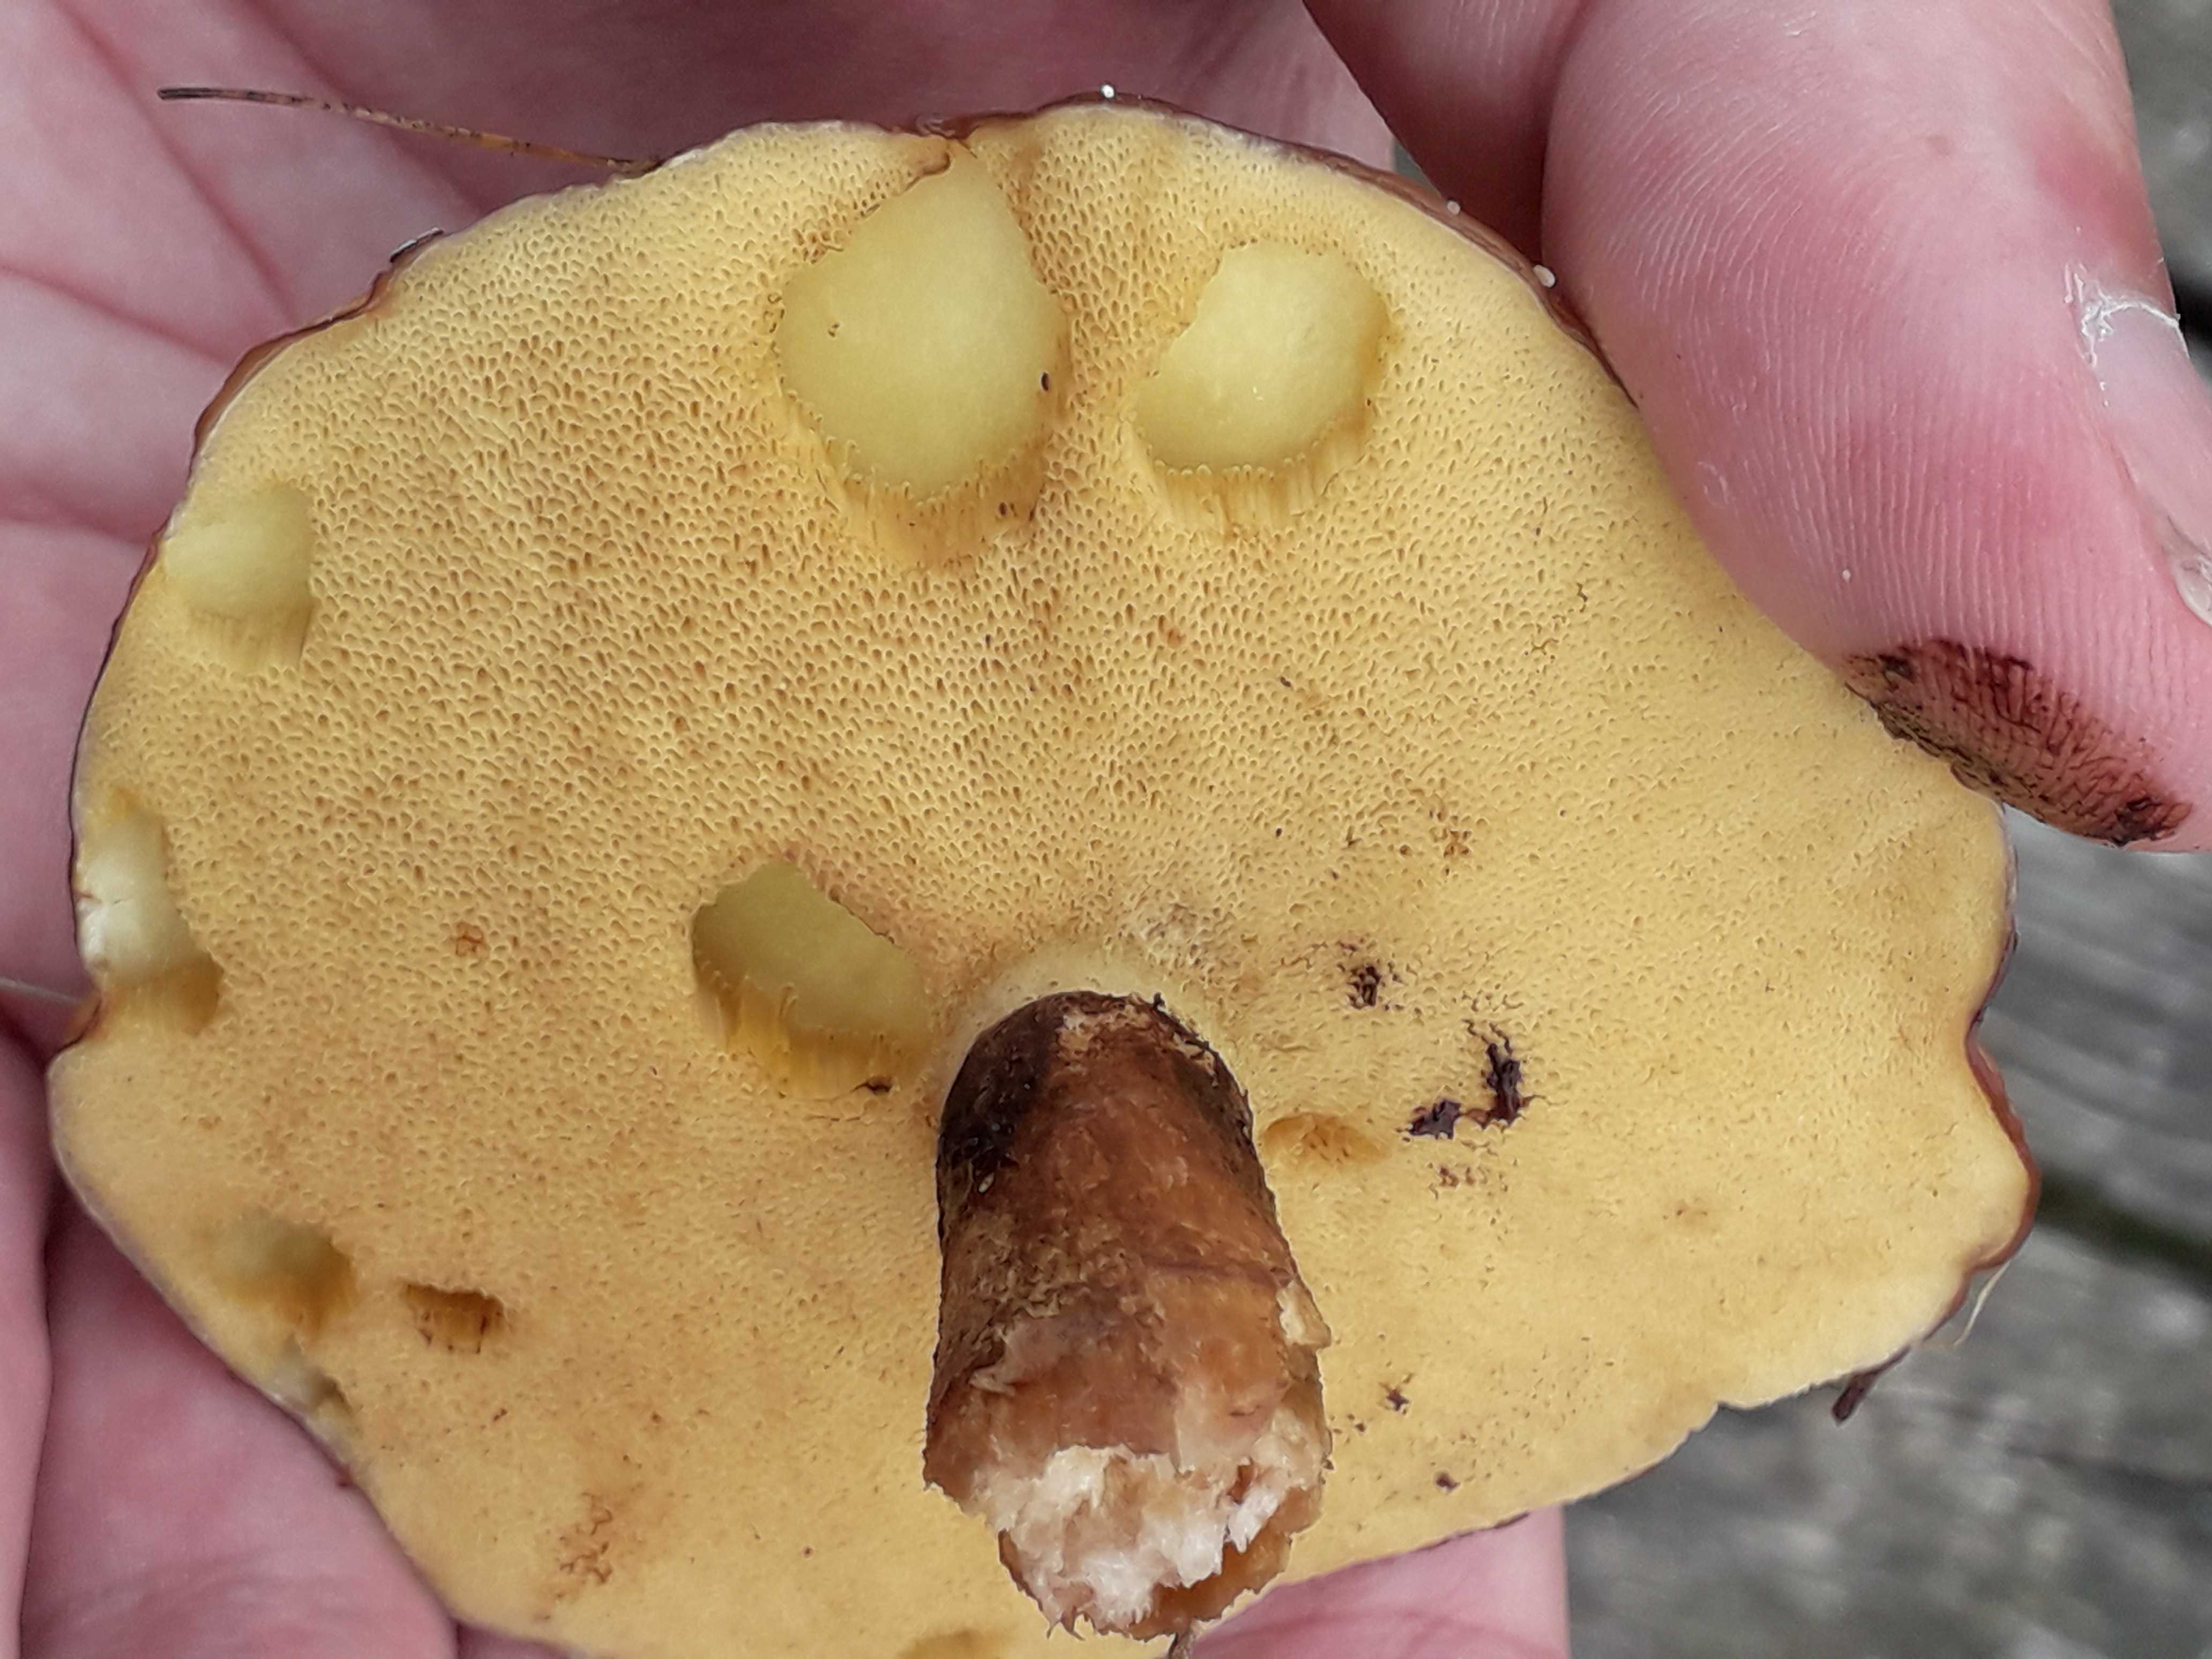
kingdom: Fungi
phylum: Basidiomycota
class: Agaricomycetes
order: Boletales
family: Suillaceae
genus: Suillus
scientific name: Suillus luteus
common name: brungul slimrørhat
